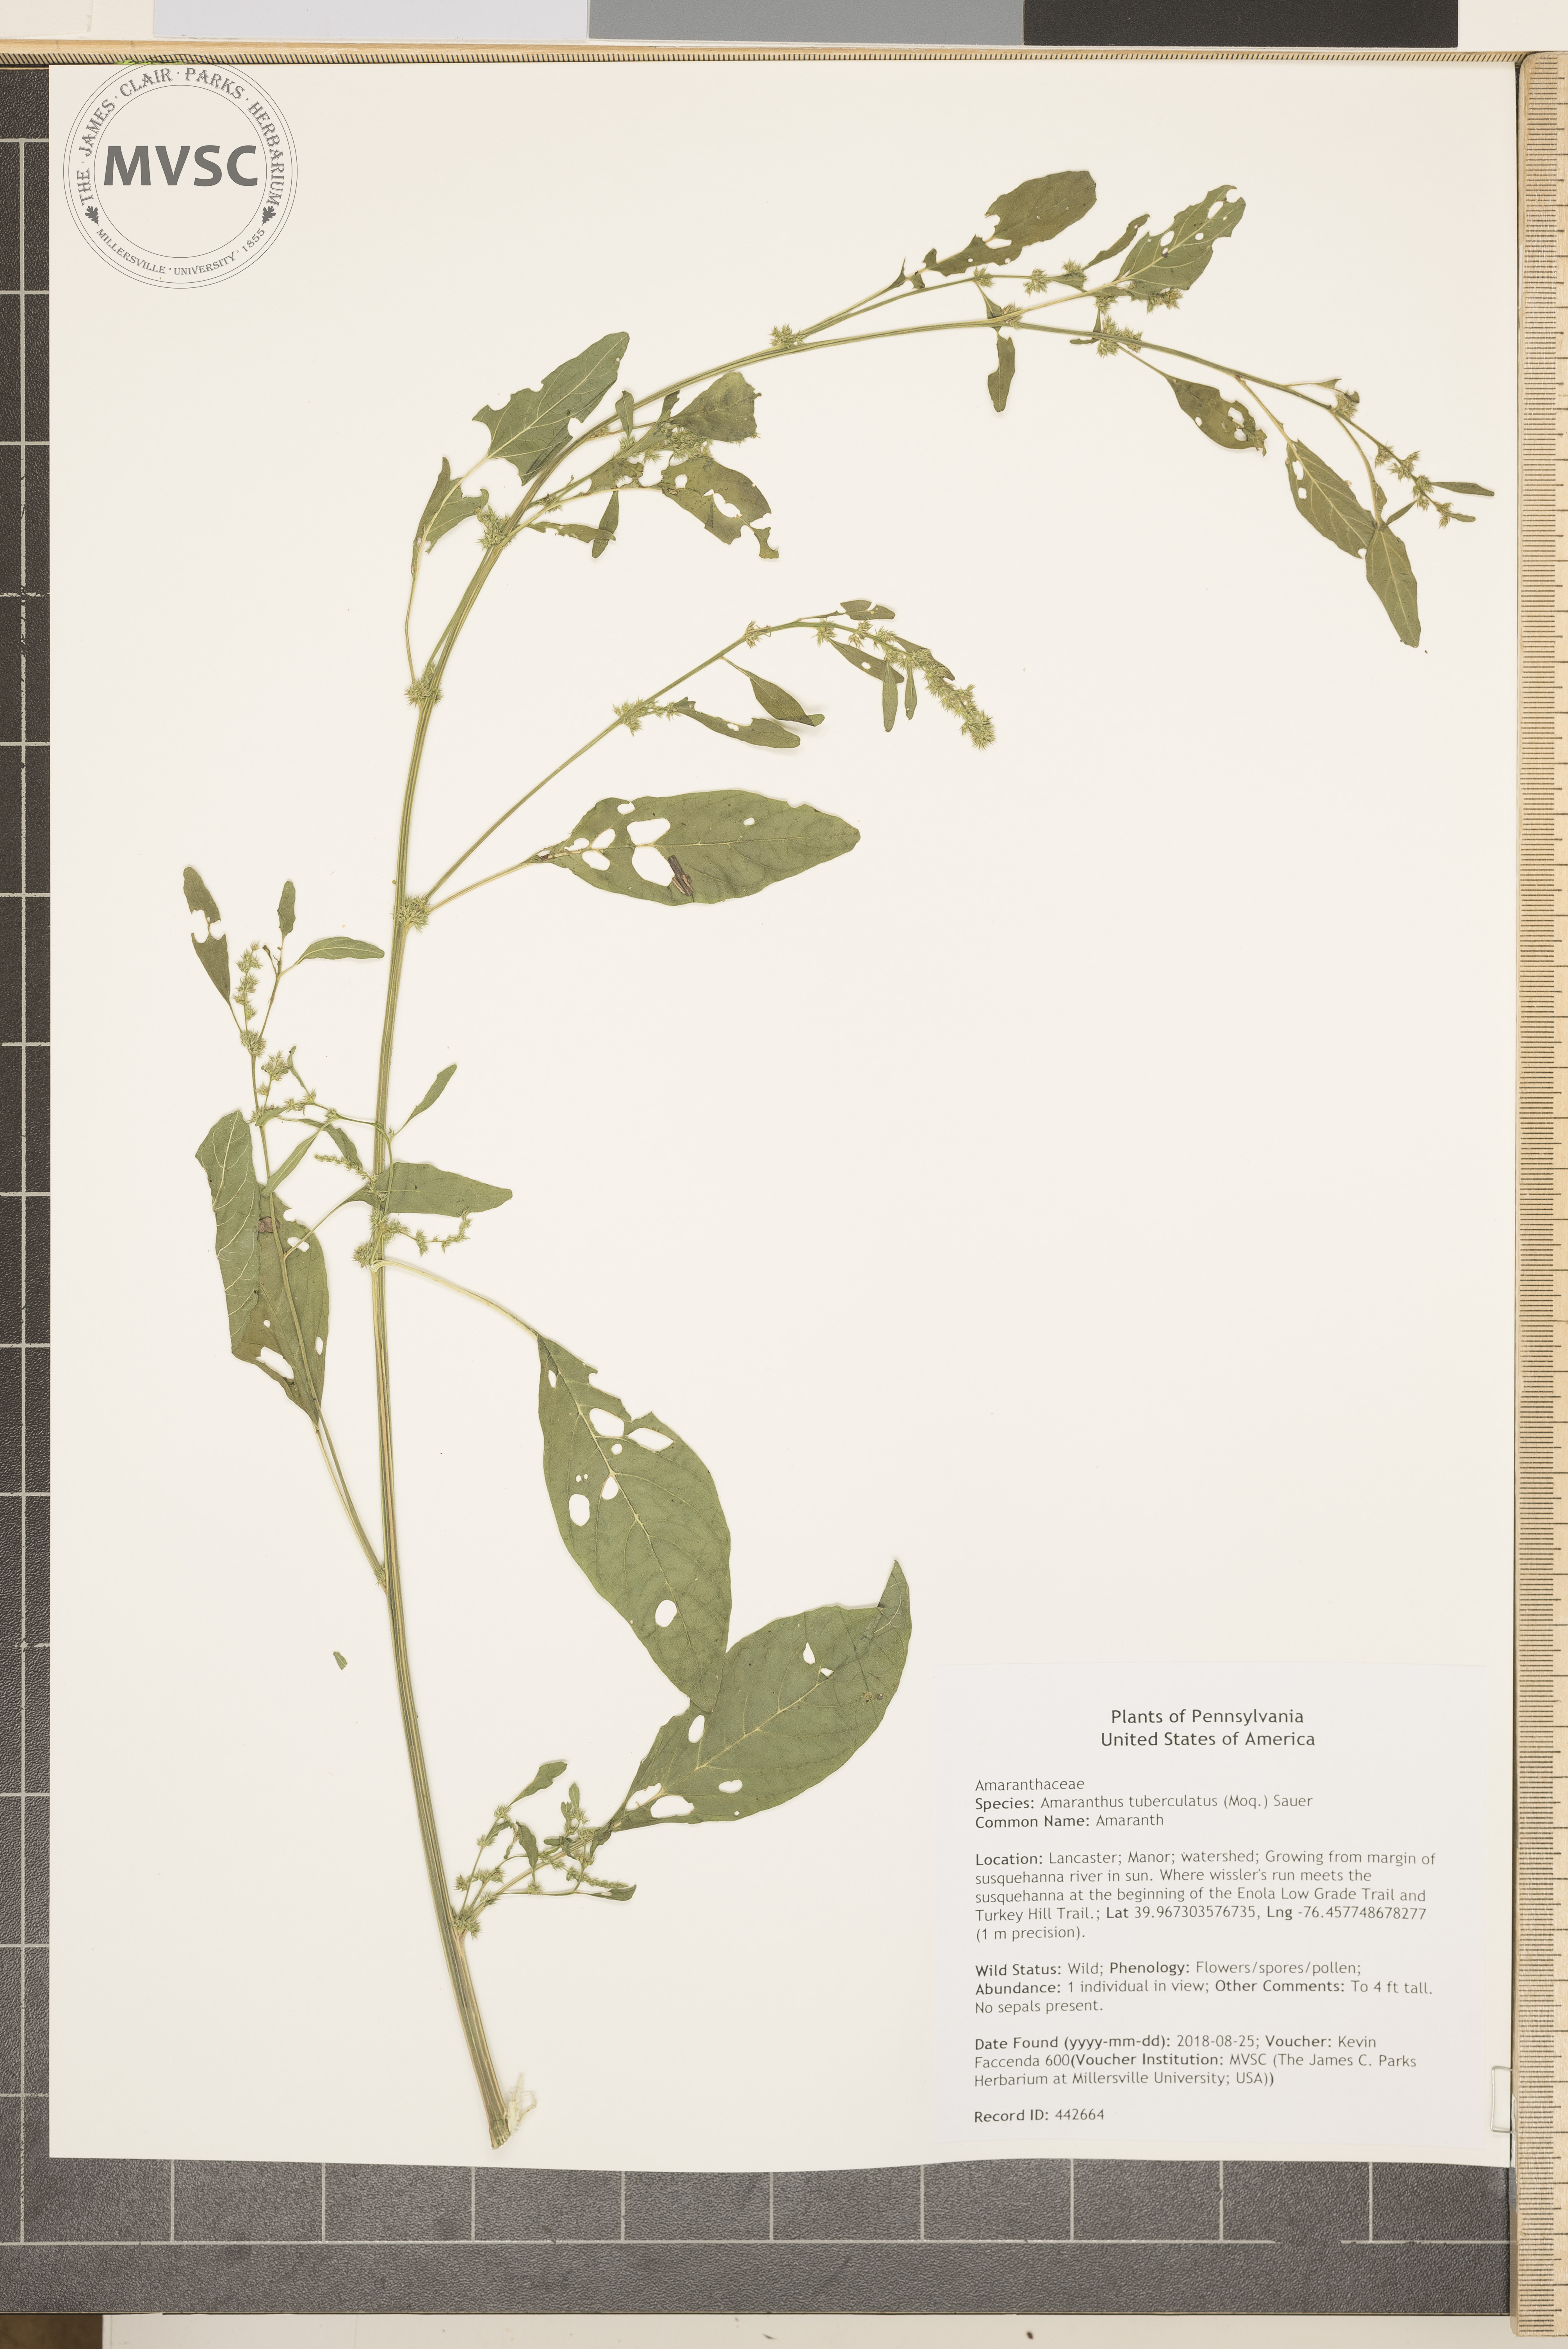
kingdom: Plantae
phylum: Tracheophyta
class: Magnoliopsida
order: Caryophyllales
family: Amaranthaceae
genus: Amaranthus
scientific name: Amaranthus tuberculatus
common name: Amaranth
